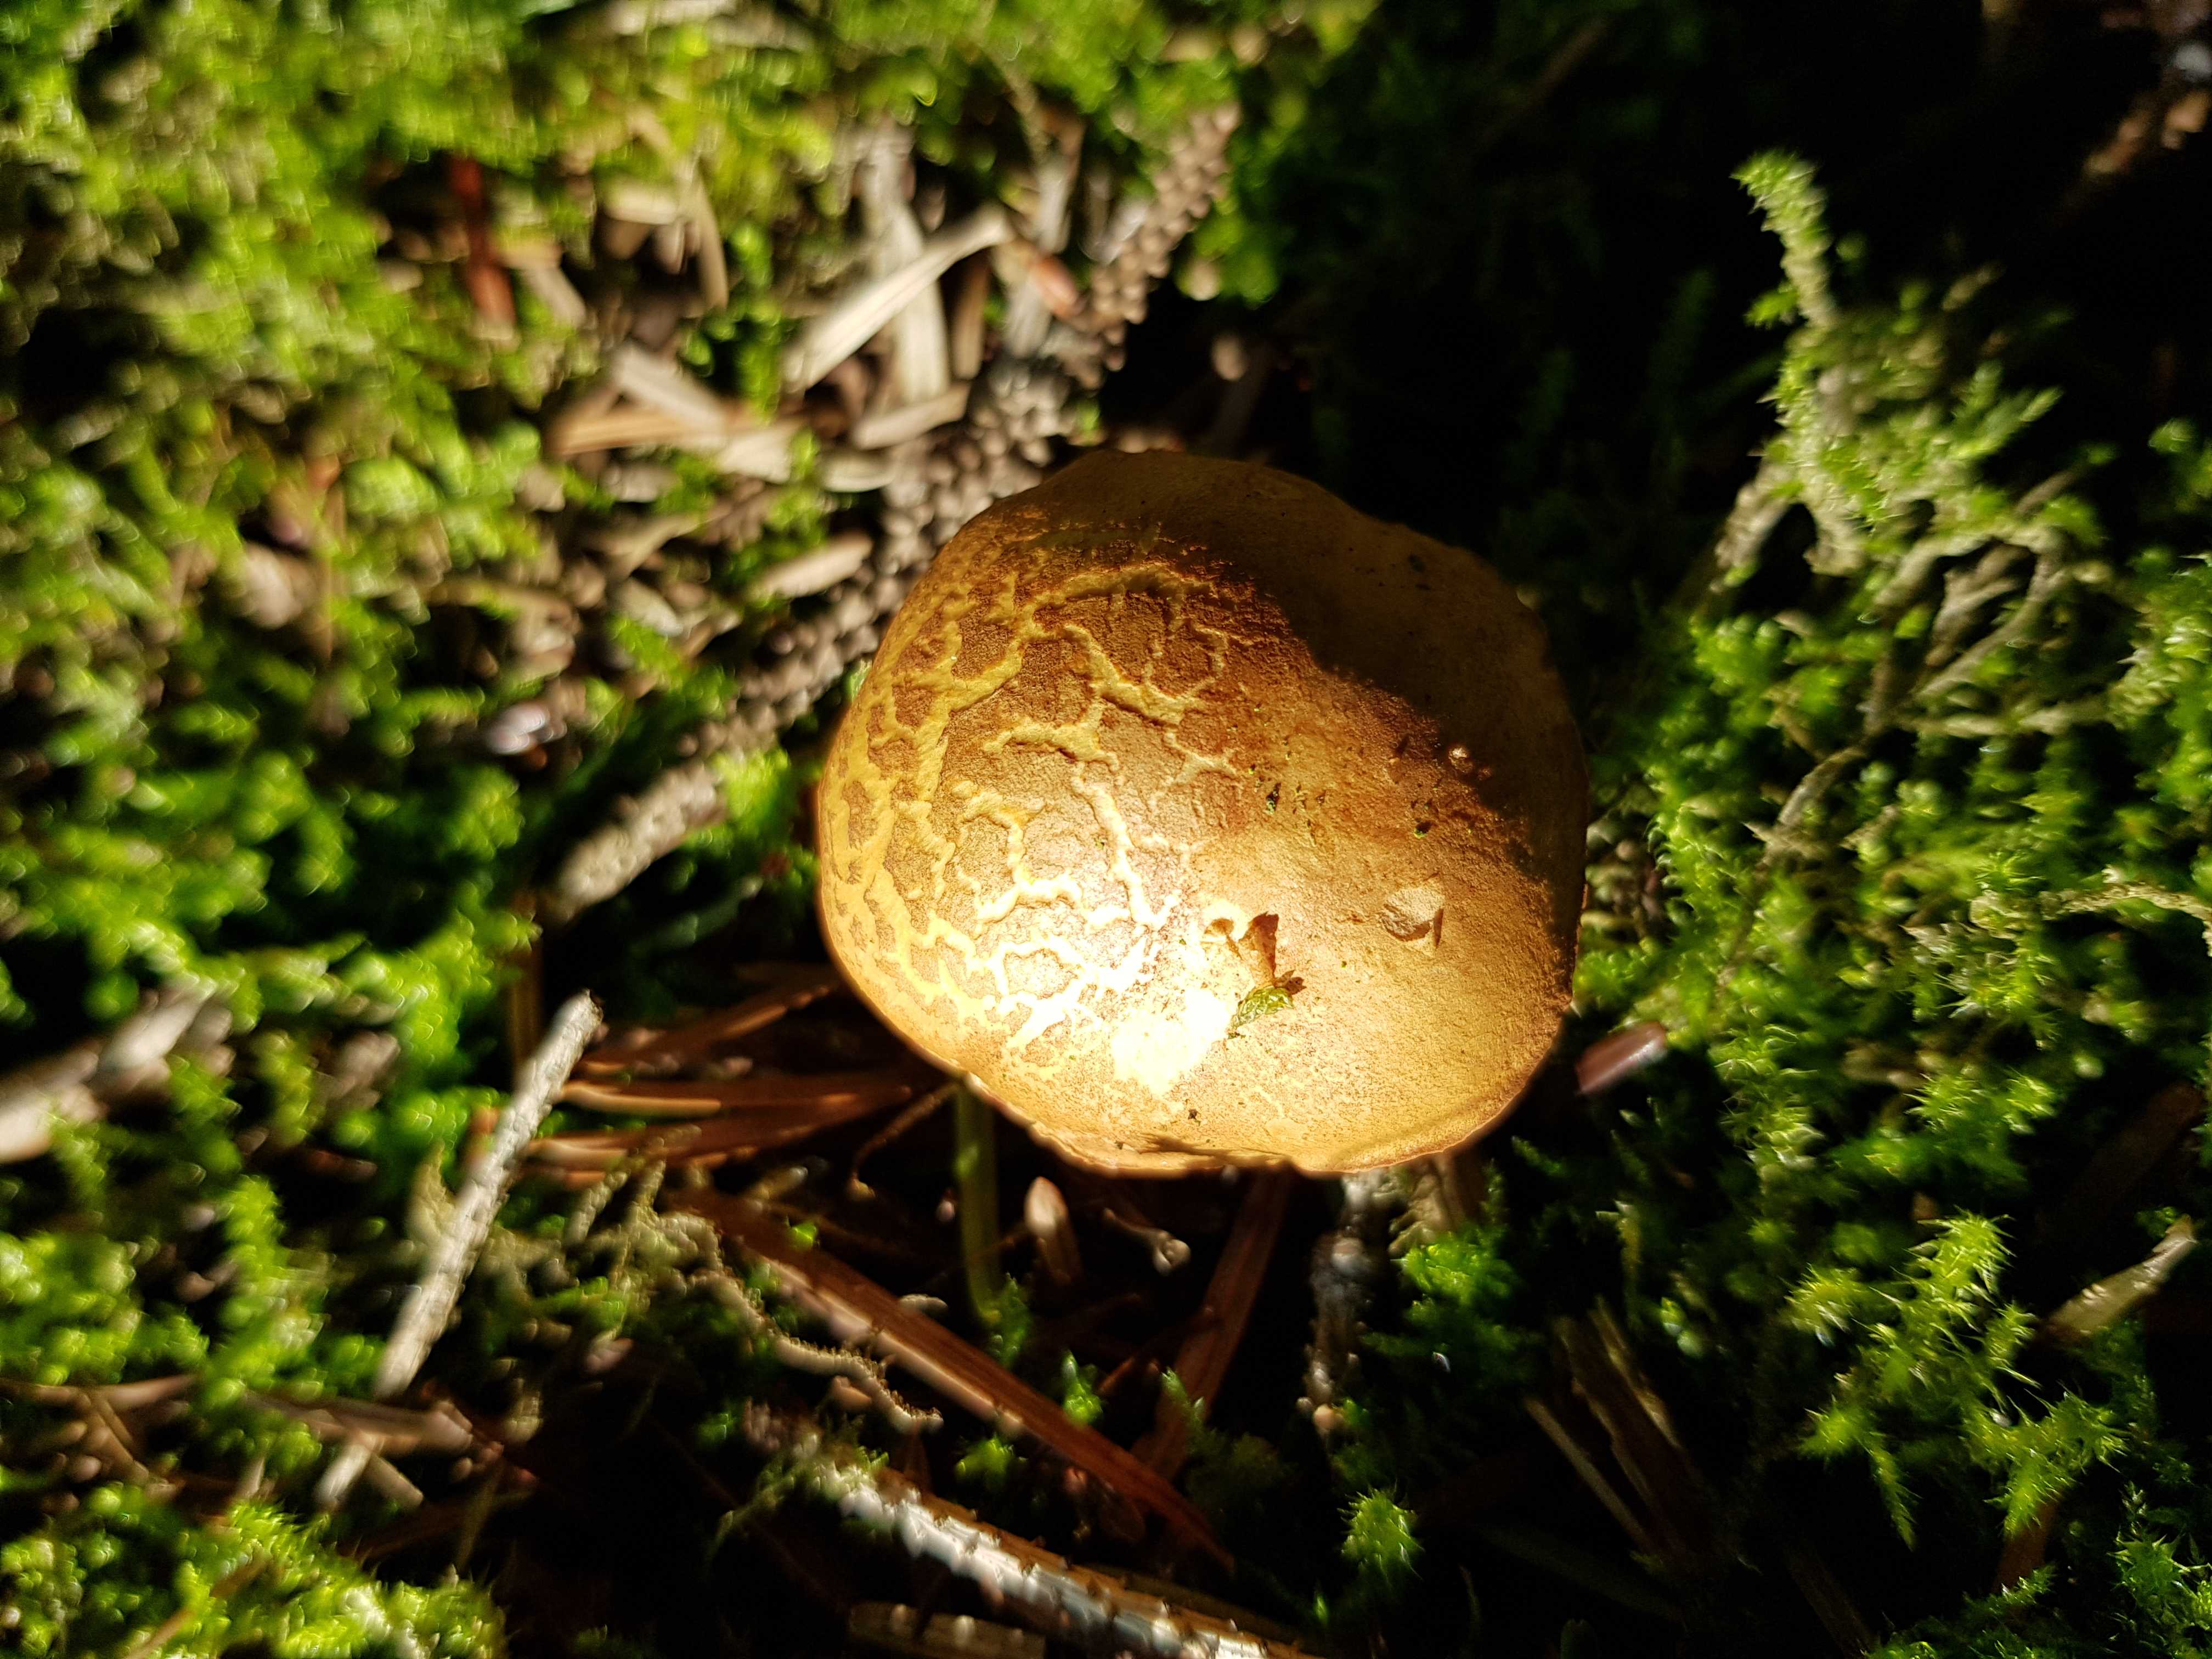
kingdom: Fungi
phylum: Basidiomycota
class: Agaricomycetes
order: Boletales
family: Boletaceae
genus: Chalciporus
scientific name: Chalciporus piperatus
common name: peberrørhat
